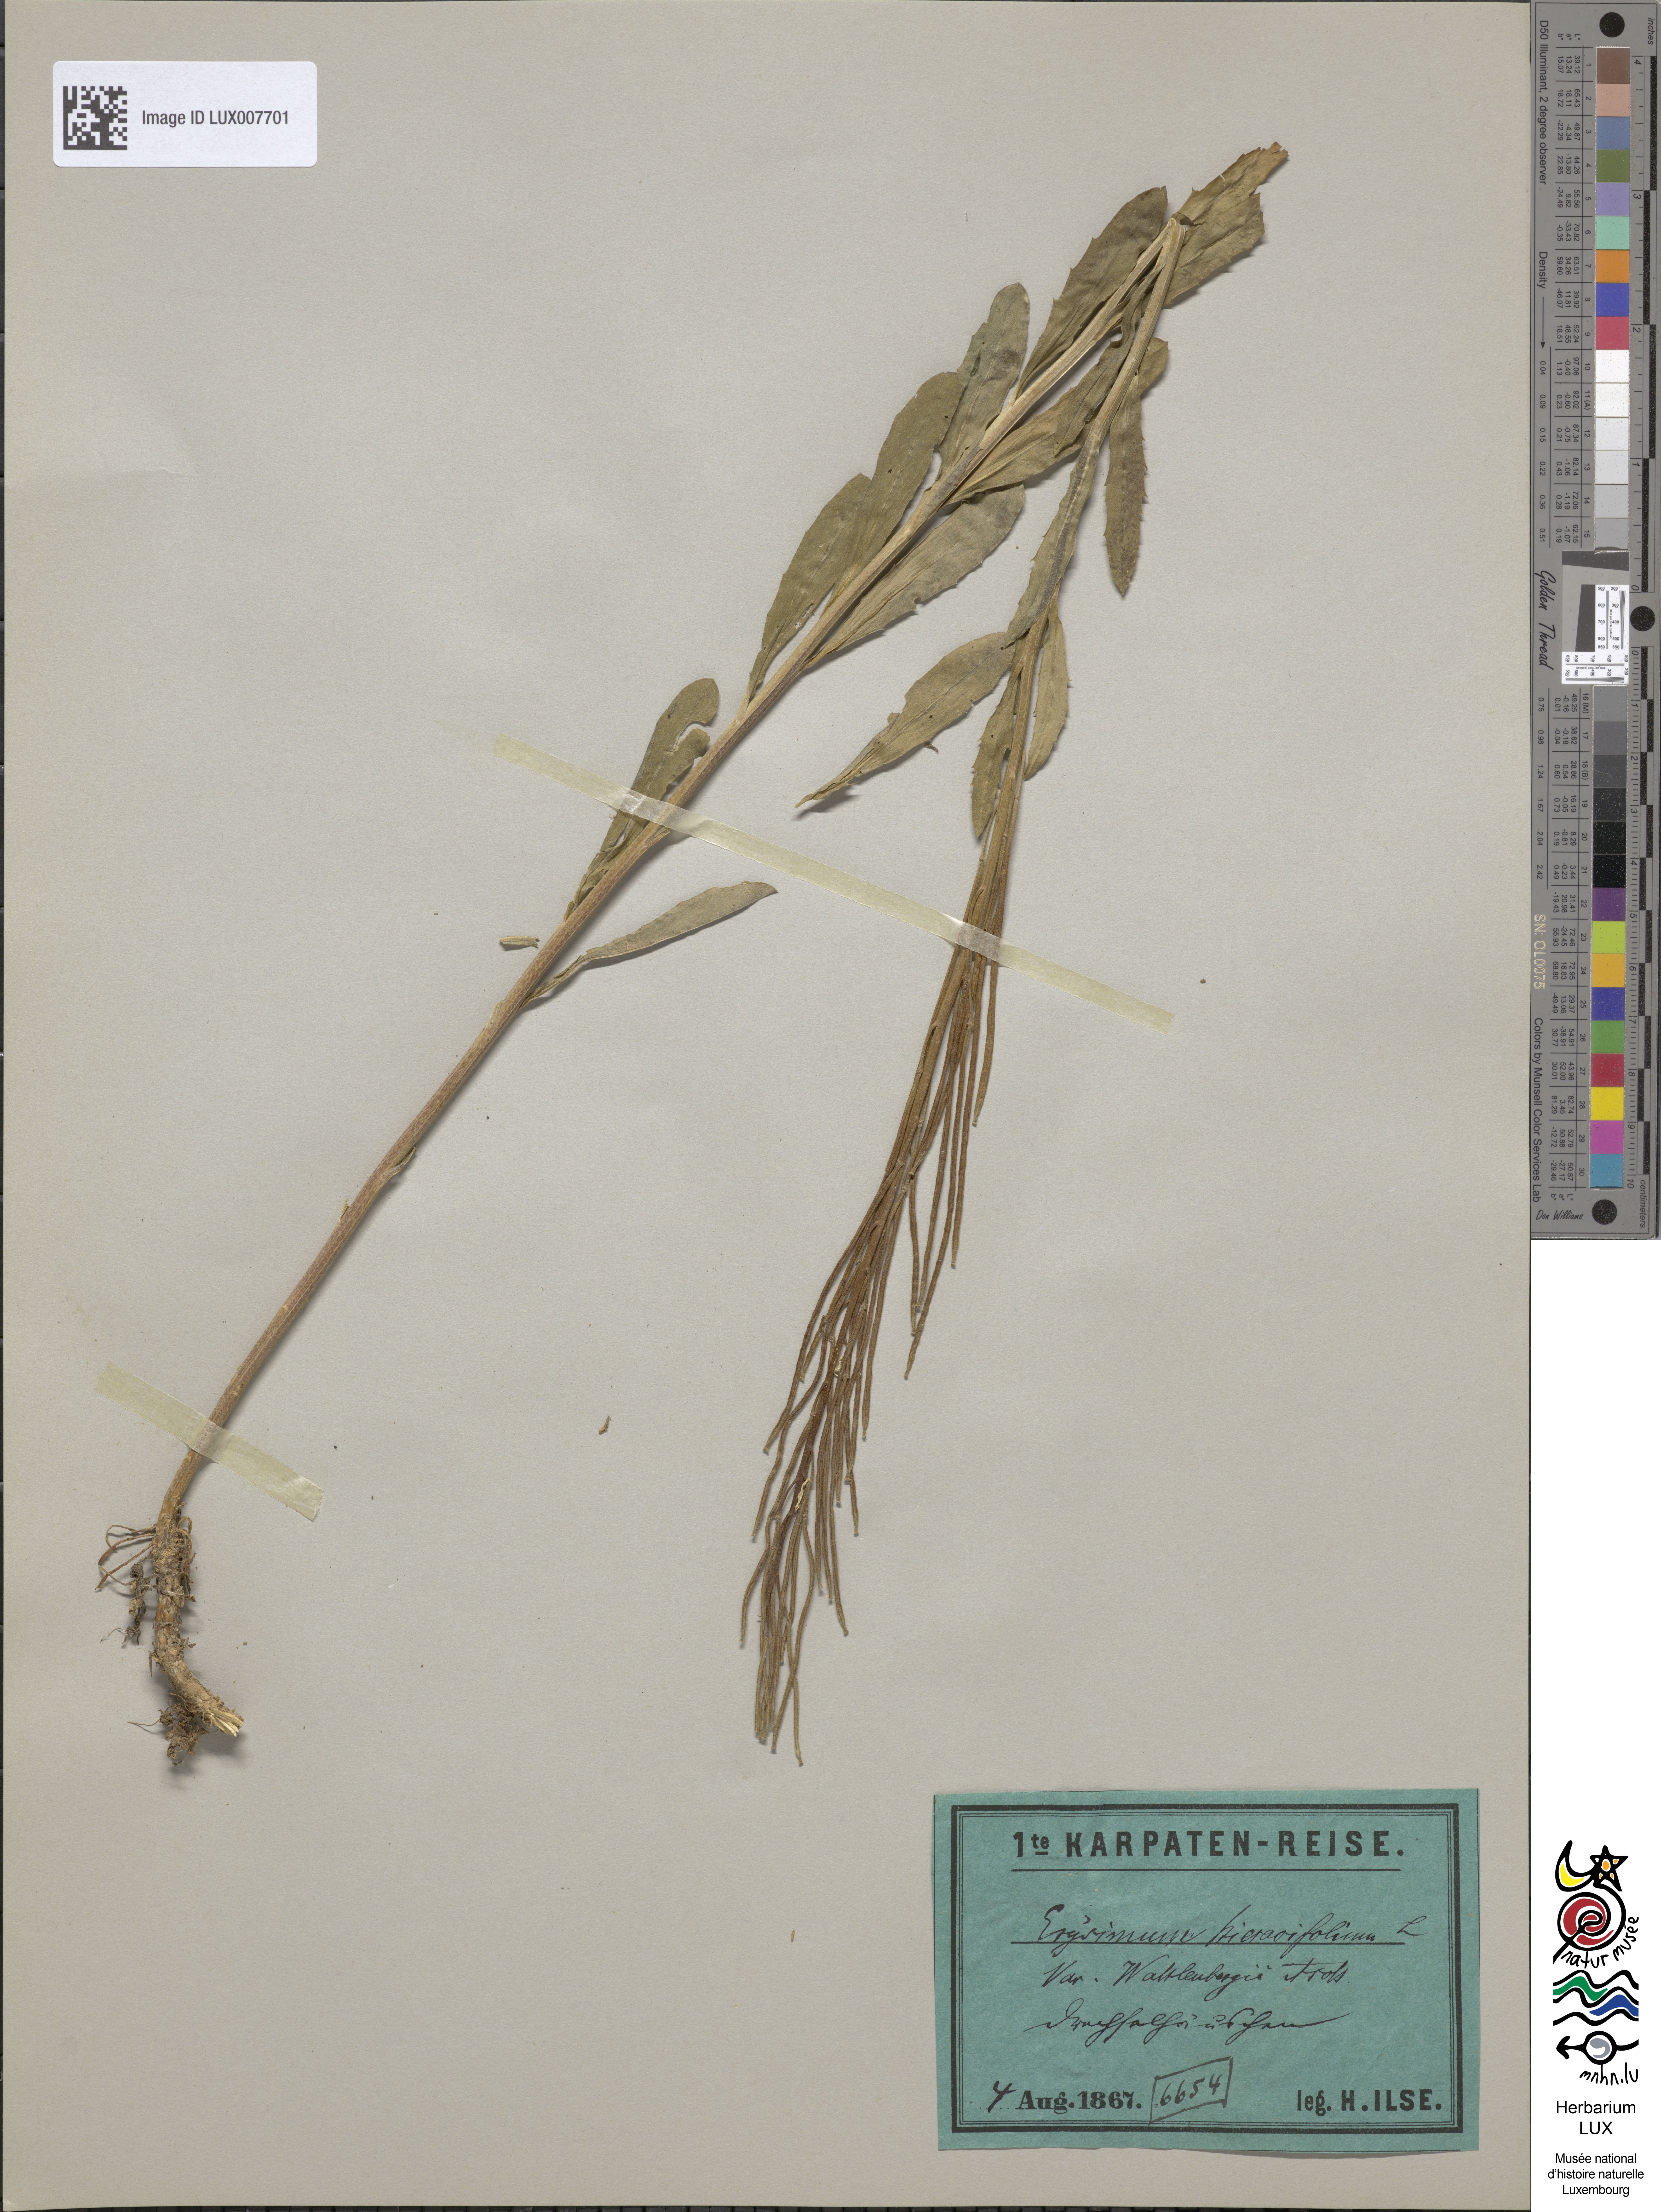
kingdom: Plantae
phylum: Tracheophyta
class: Magnoliopsida
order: Brassicales
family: Brassicaceae
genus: Erysimum
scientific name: Erysimum hieraciifolium
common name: European wallflower
